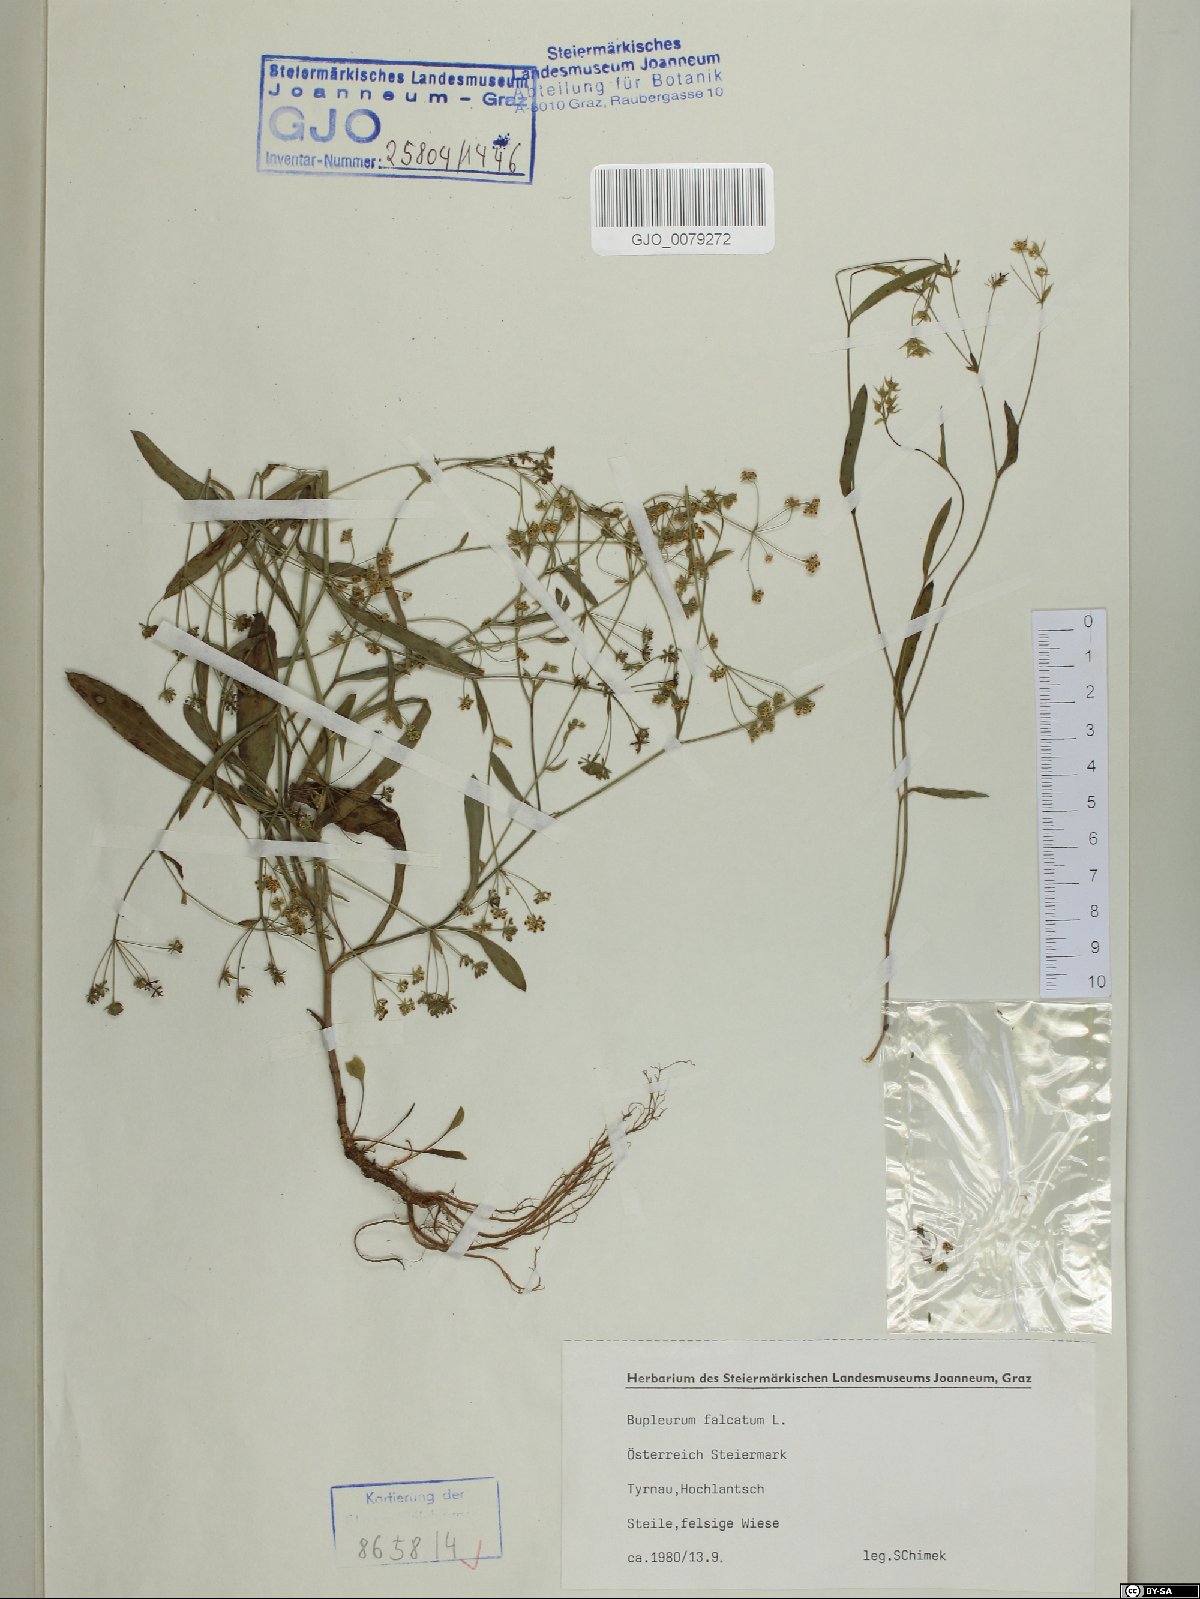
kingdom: Plantae
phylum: Tracheophyta
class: Magnoliopsida
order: Apiales
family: Apiaceae
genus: Bupleurum
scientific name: Bupleurum falcatum
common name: Sickle-leaved hare's-ear
